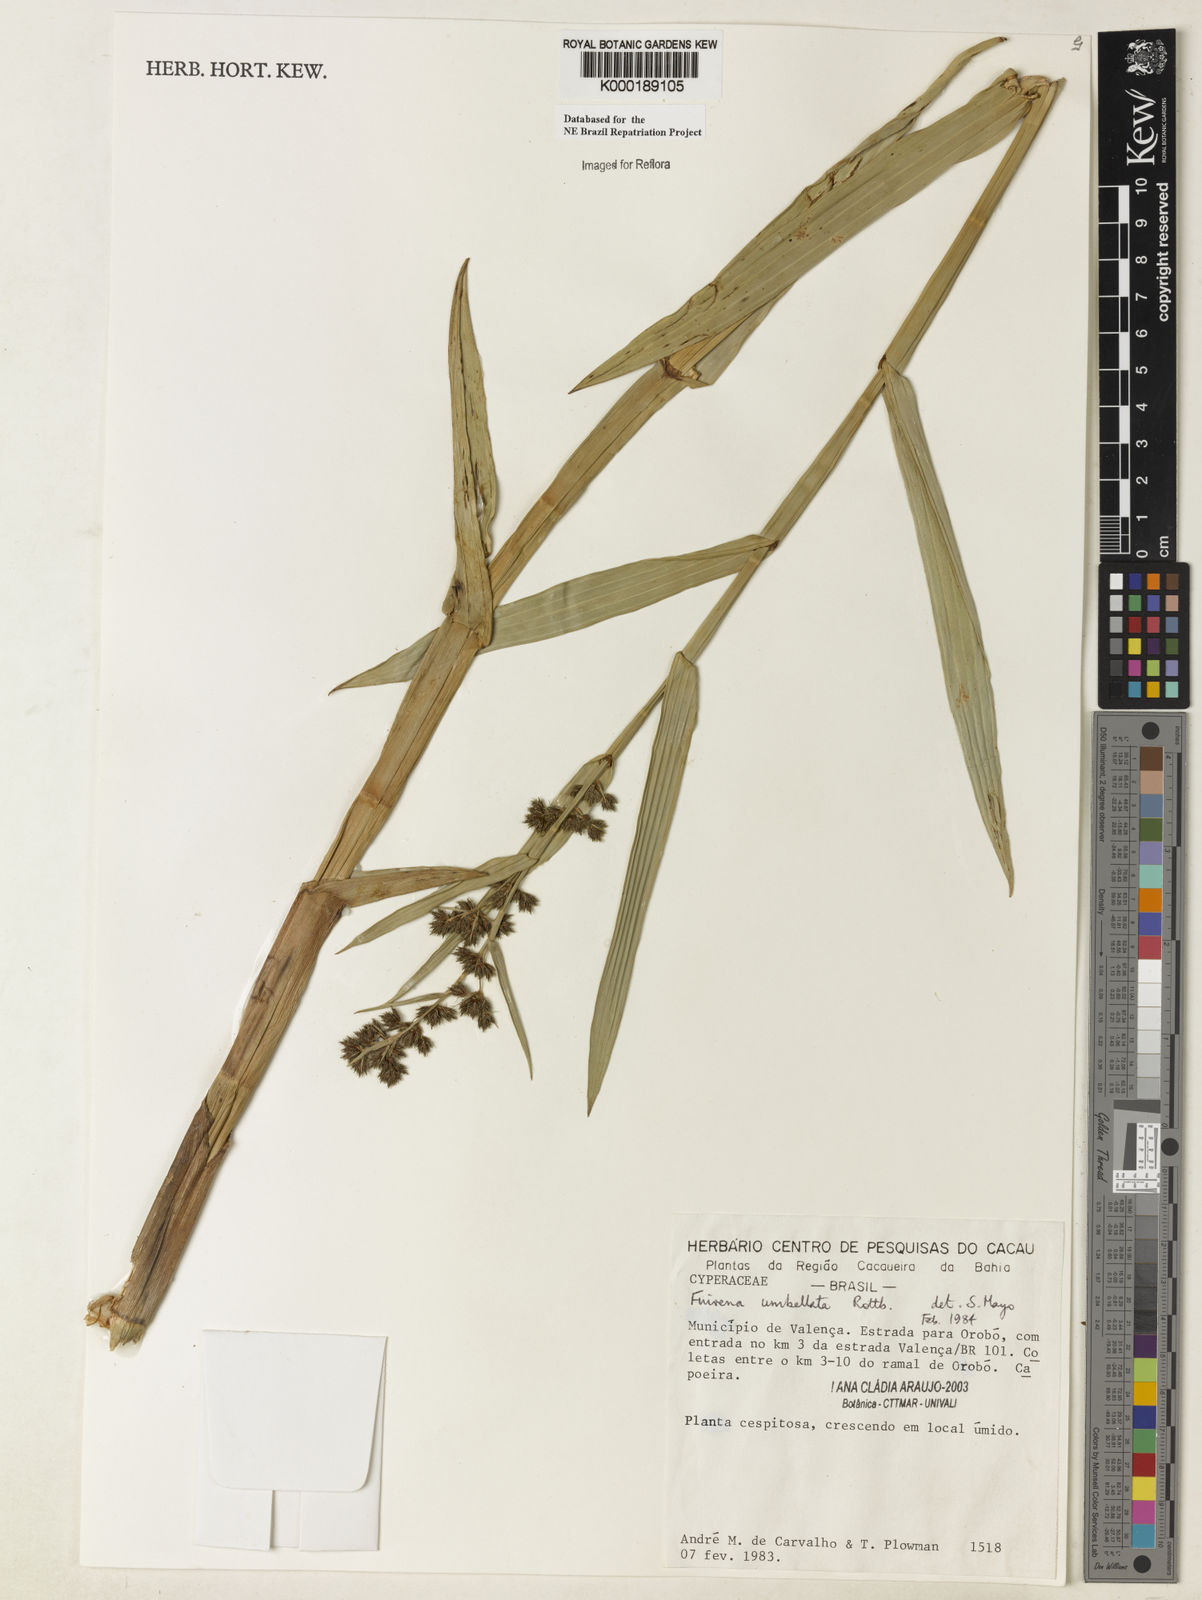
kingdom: Plantae
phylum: Tracheophyta
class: Liliopsida
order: Poales
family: Cyperaceae
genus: Fuirena
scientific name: Fuirena umbellata
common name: Yefen
